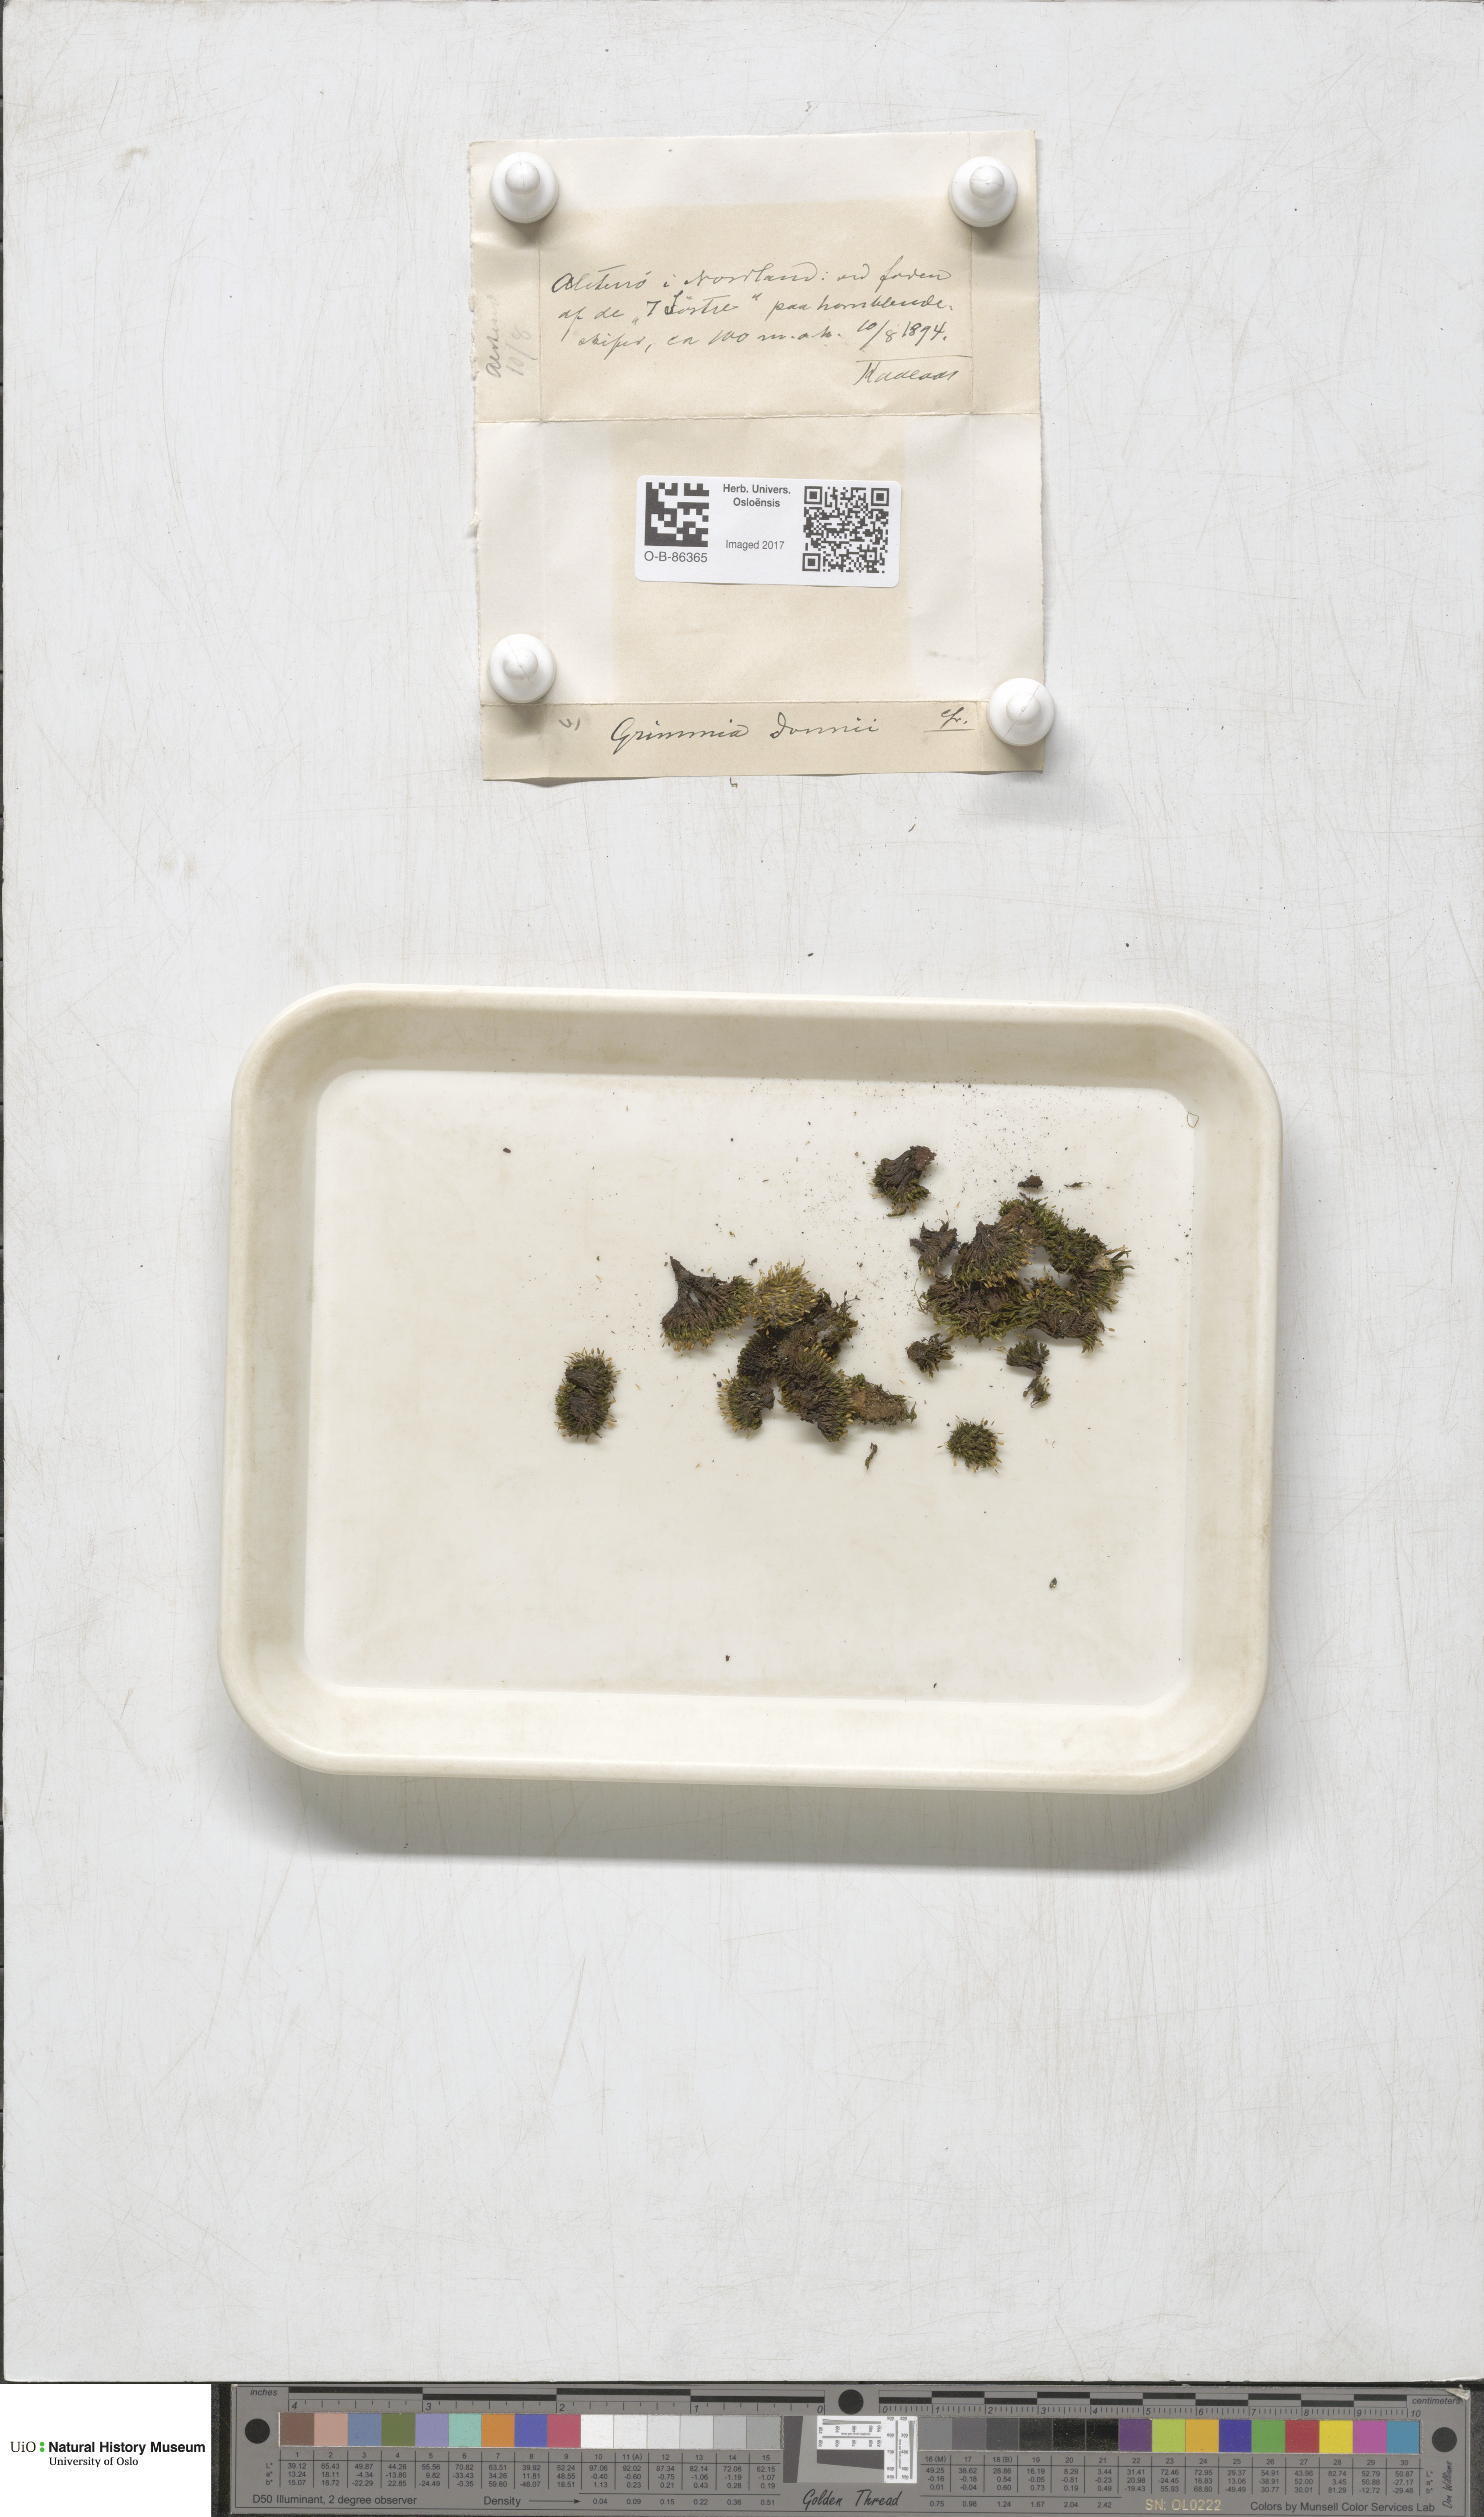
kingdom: Plantae
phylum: Bryophyta
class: Bryopsida
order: Grimmiales
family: Grimmiaceae
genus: Grimmia
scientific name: Grimmia donniana
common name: Donn's grimmia
